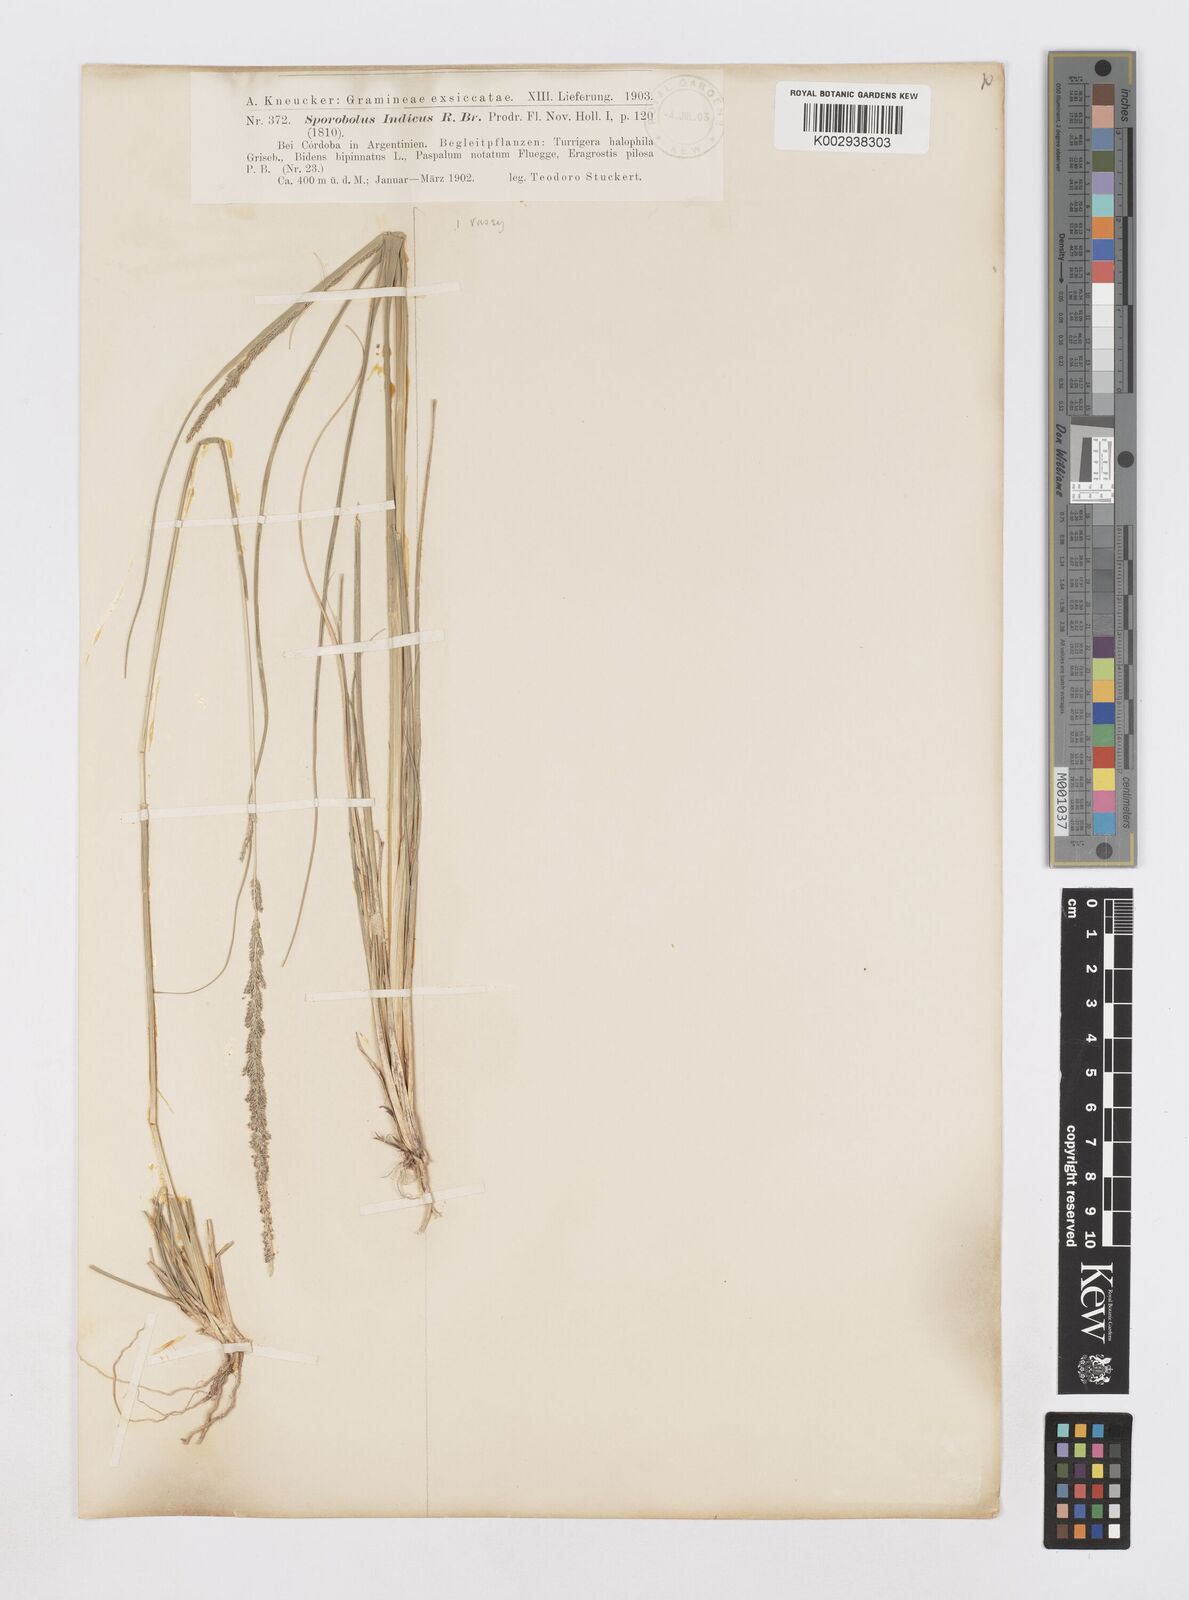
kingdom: Plantae
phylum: Tracheophyta
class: Liliopsida
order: Poales
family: Poaceae
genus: Sporobolus
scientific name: Sporobolus indicus
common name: Smut grass
